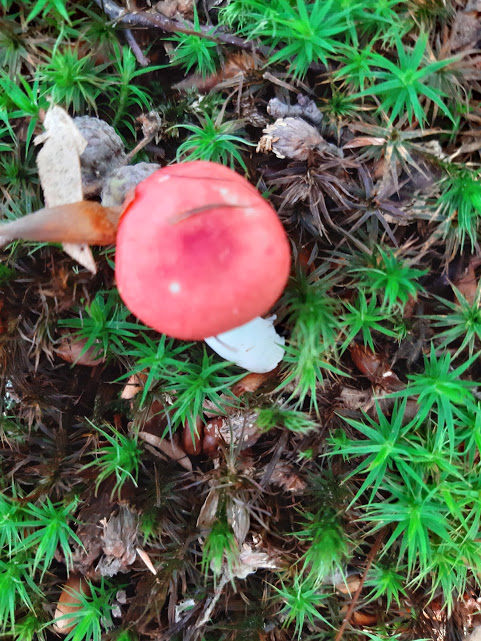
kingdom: Fungi
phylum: Basidiomycota
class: Agaricomycetes
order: Russulales
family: Russulaceae
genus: Russula
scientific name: Russula nobilis
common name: lille gift-skørhat
